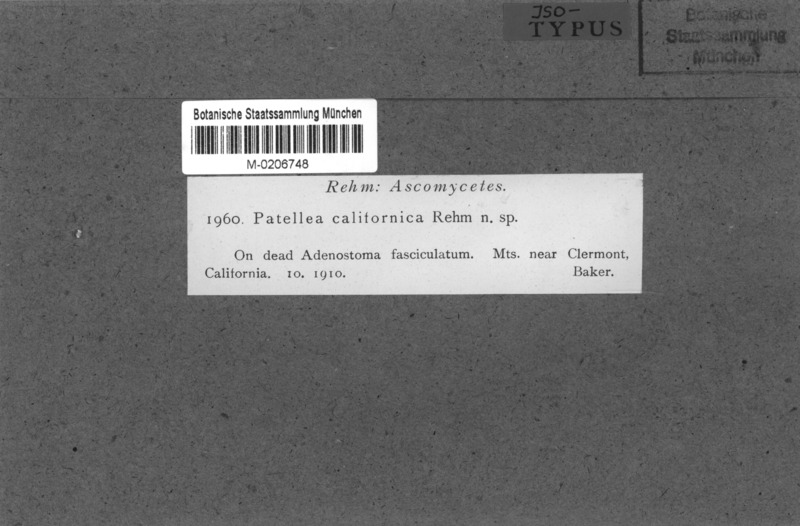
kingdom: Fungi
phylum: Ascomycota
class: Leotiomycetes
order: Helotiales
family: Helotiaceae
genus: Patellea
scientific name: Patellea californica
